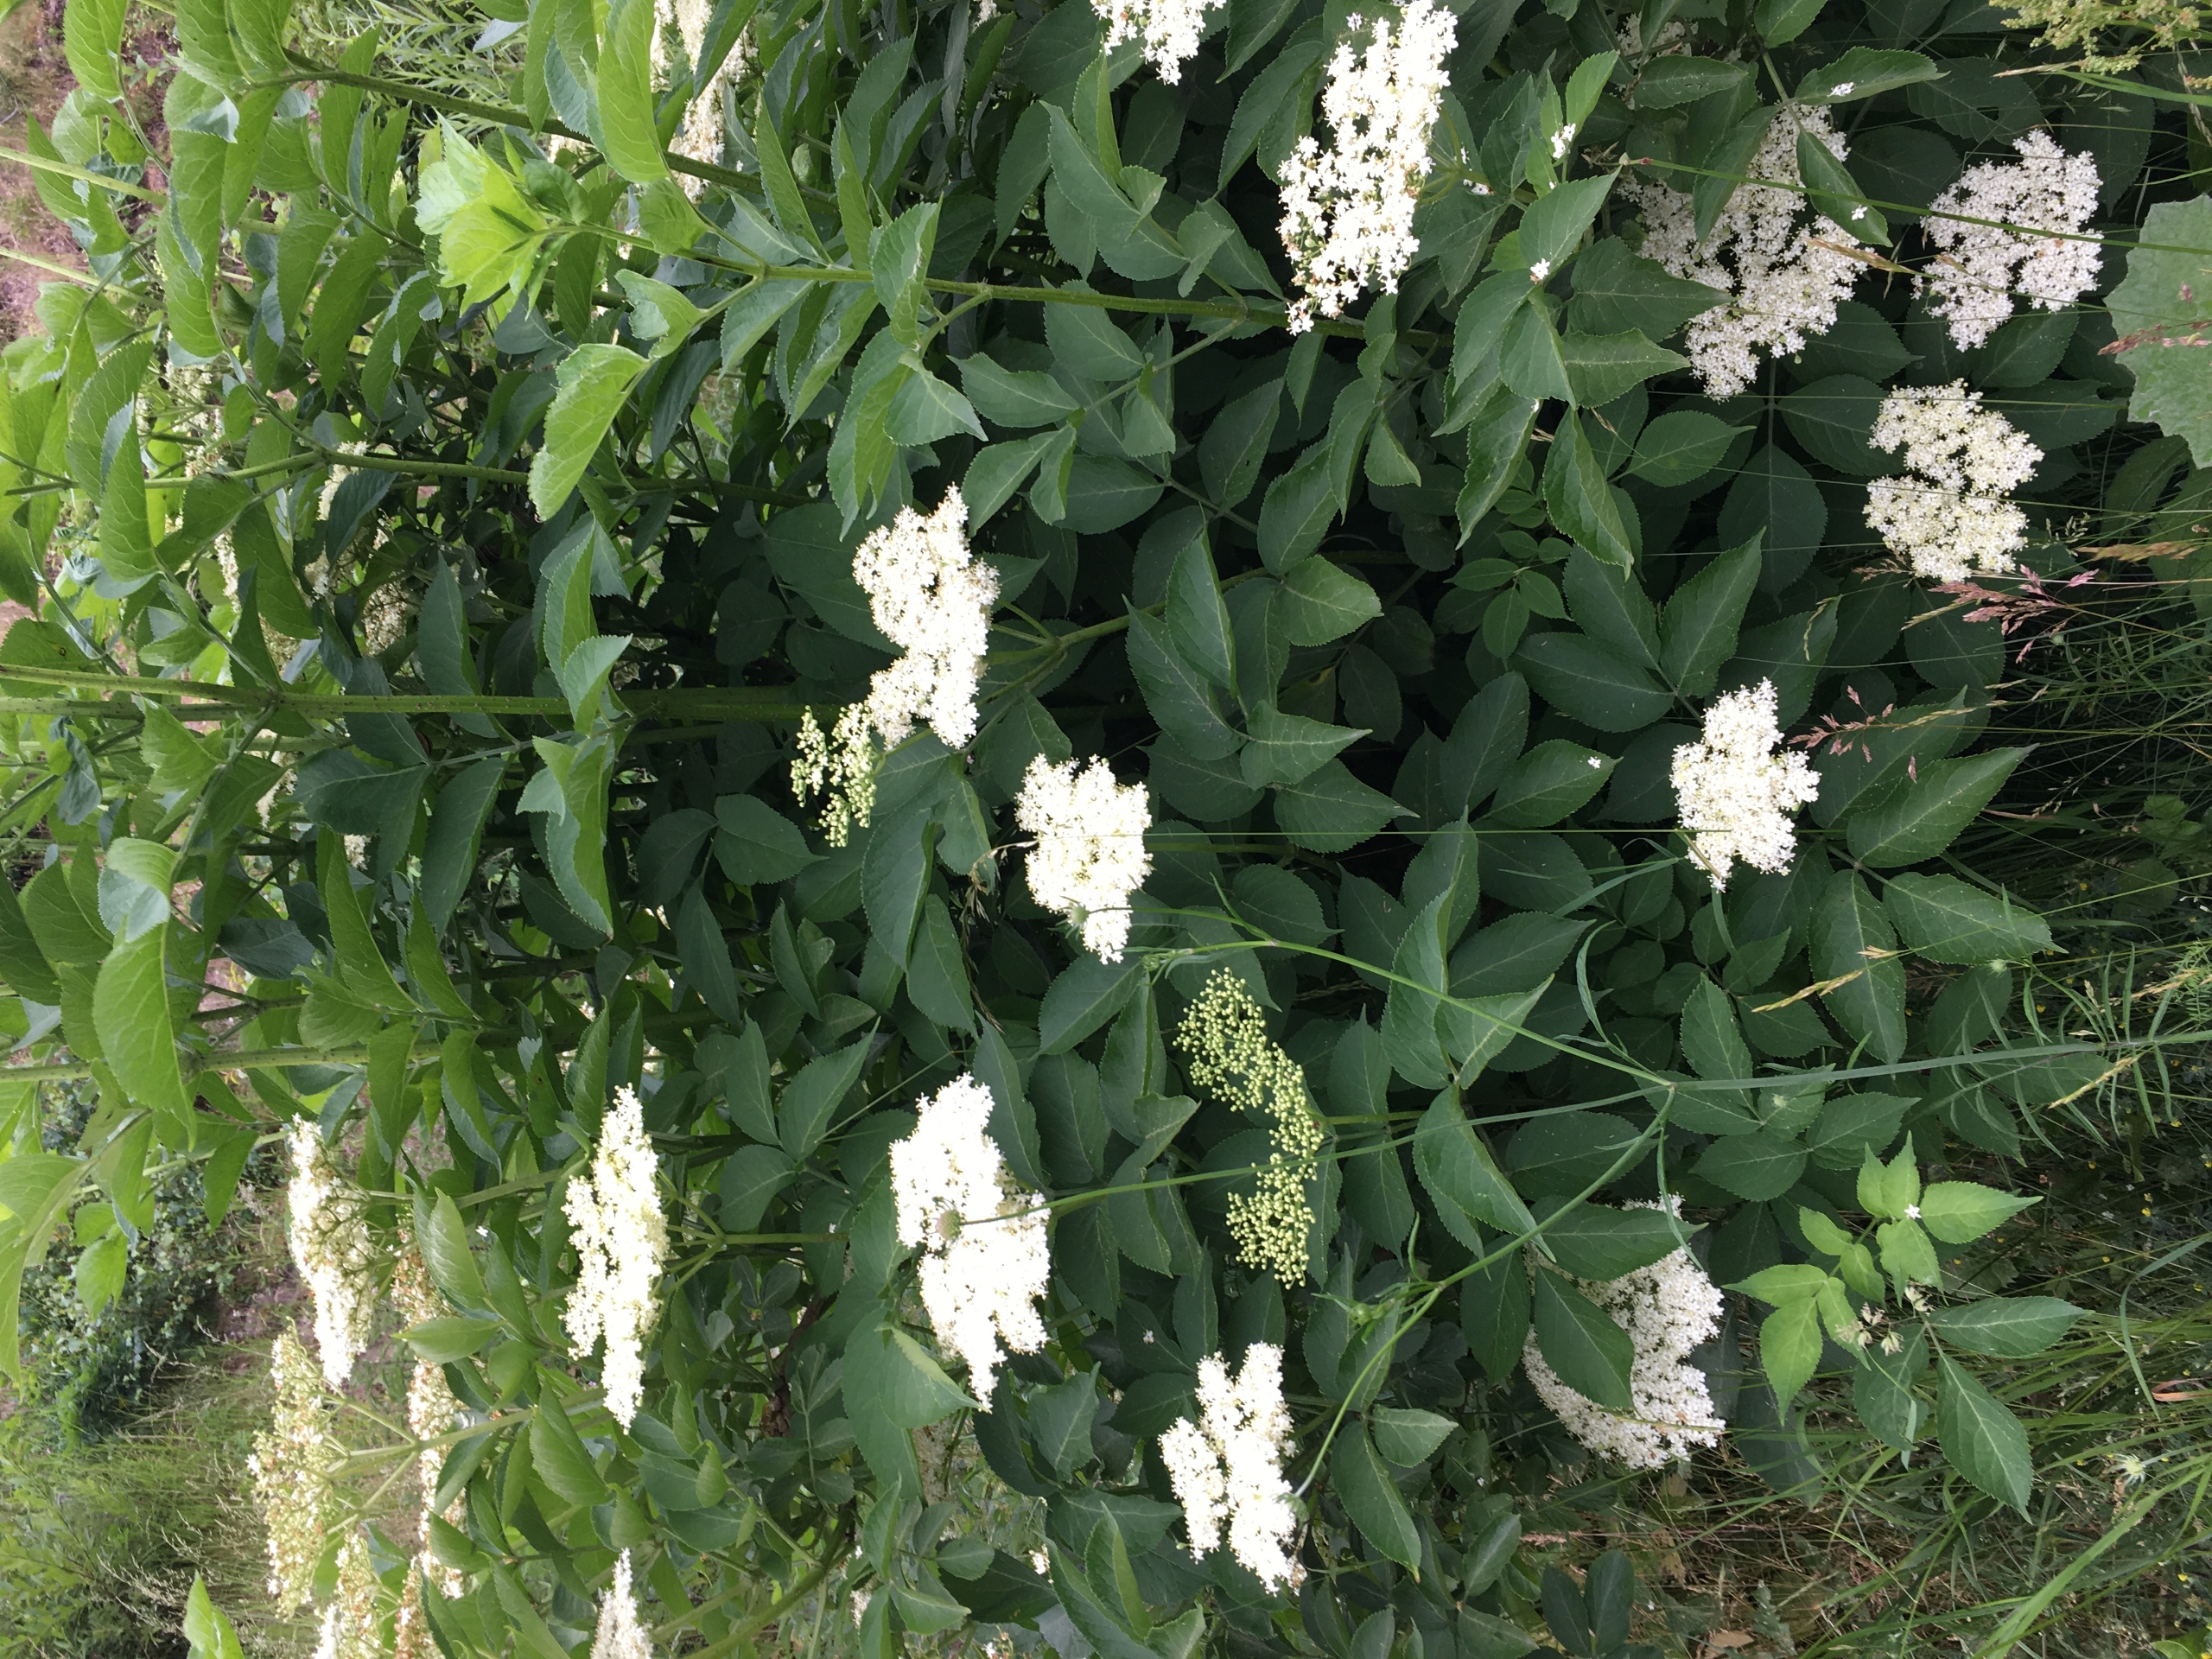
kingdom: Plantae
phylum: Tracheophyta
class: Magnoliopsida
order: Dipsacales
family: Viburnaceae
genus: Sambucus
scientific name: Sambucus nigra
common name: Almindelig hyld
